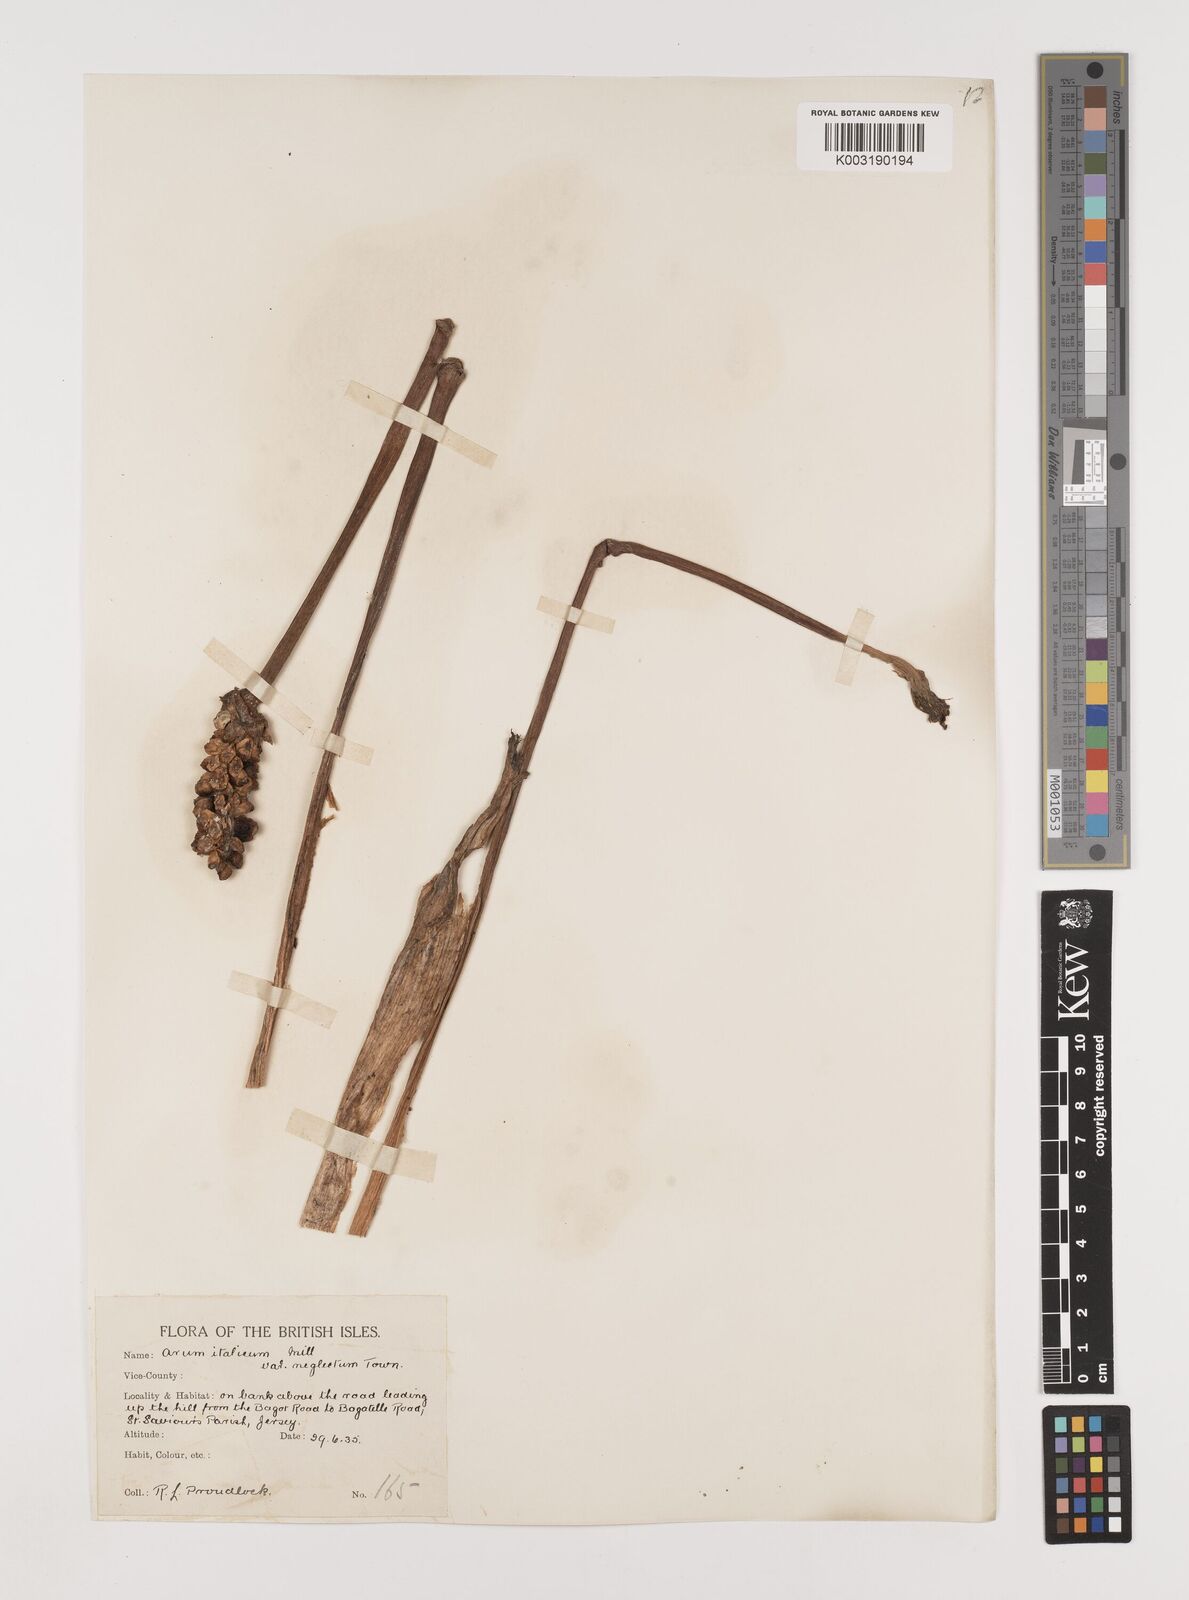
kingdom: Plantae
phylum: Tracheophyta
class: Liliopsida
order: Alismatales
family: Araceae
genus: Arum
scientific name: Arum italicum
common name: Italian lords-and-ladies
